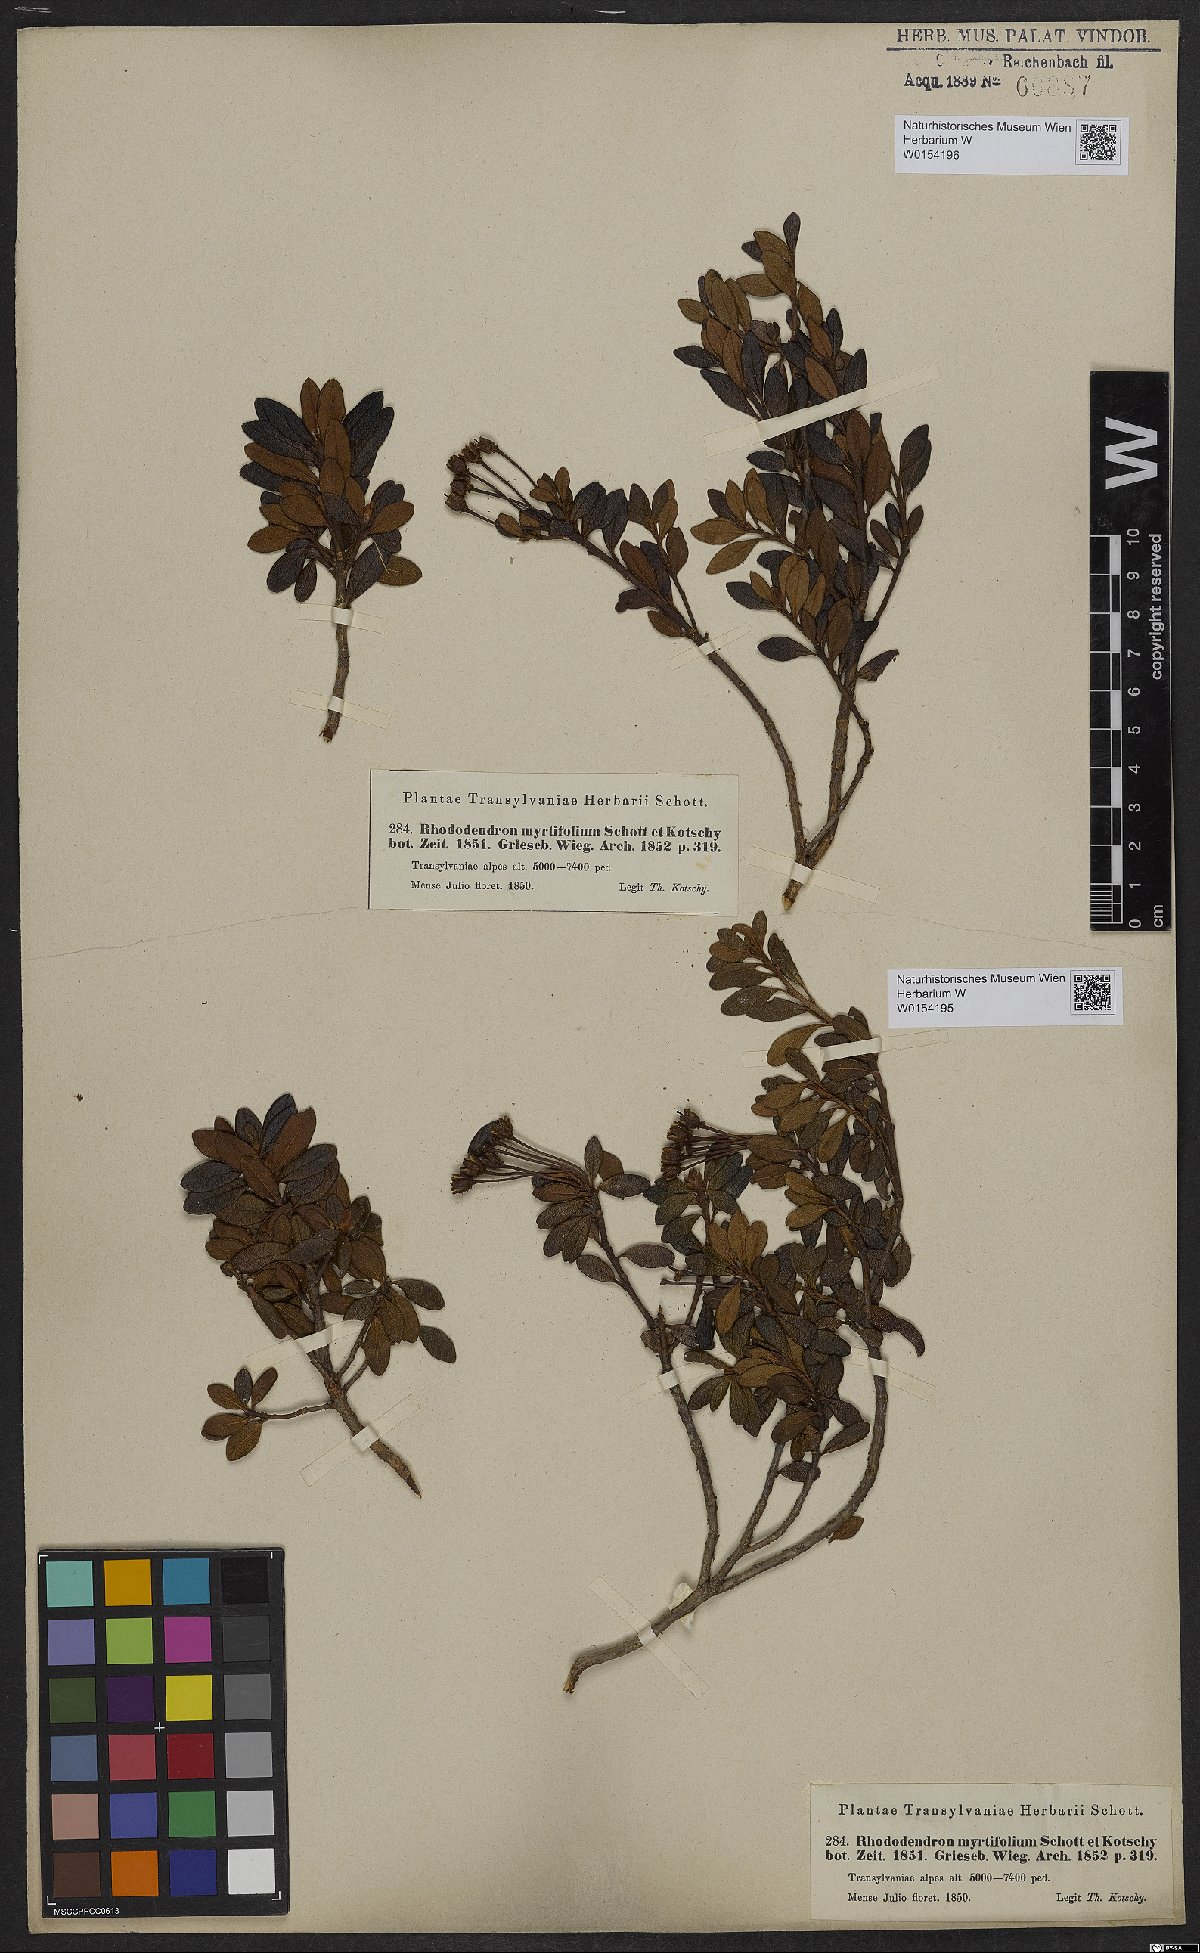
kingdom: Plantae
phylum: Tracheophyta
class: Magnoliopsida
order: Ericales
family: Ericaceae
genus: Rhododendron
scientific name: Rhododendron kotschyi
